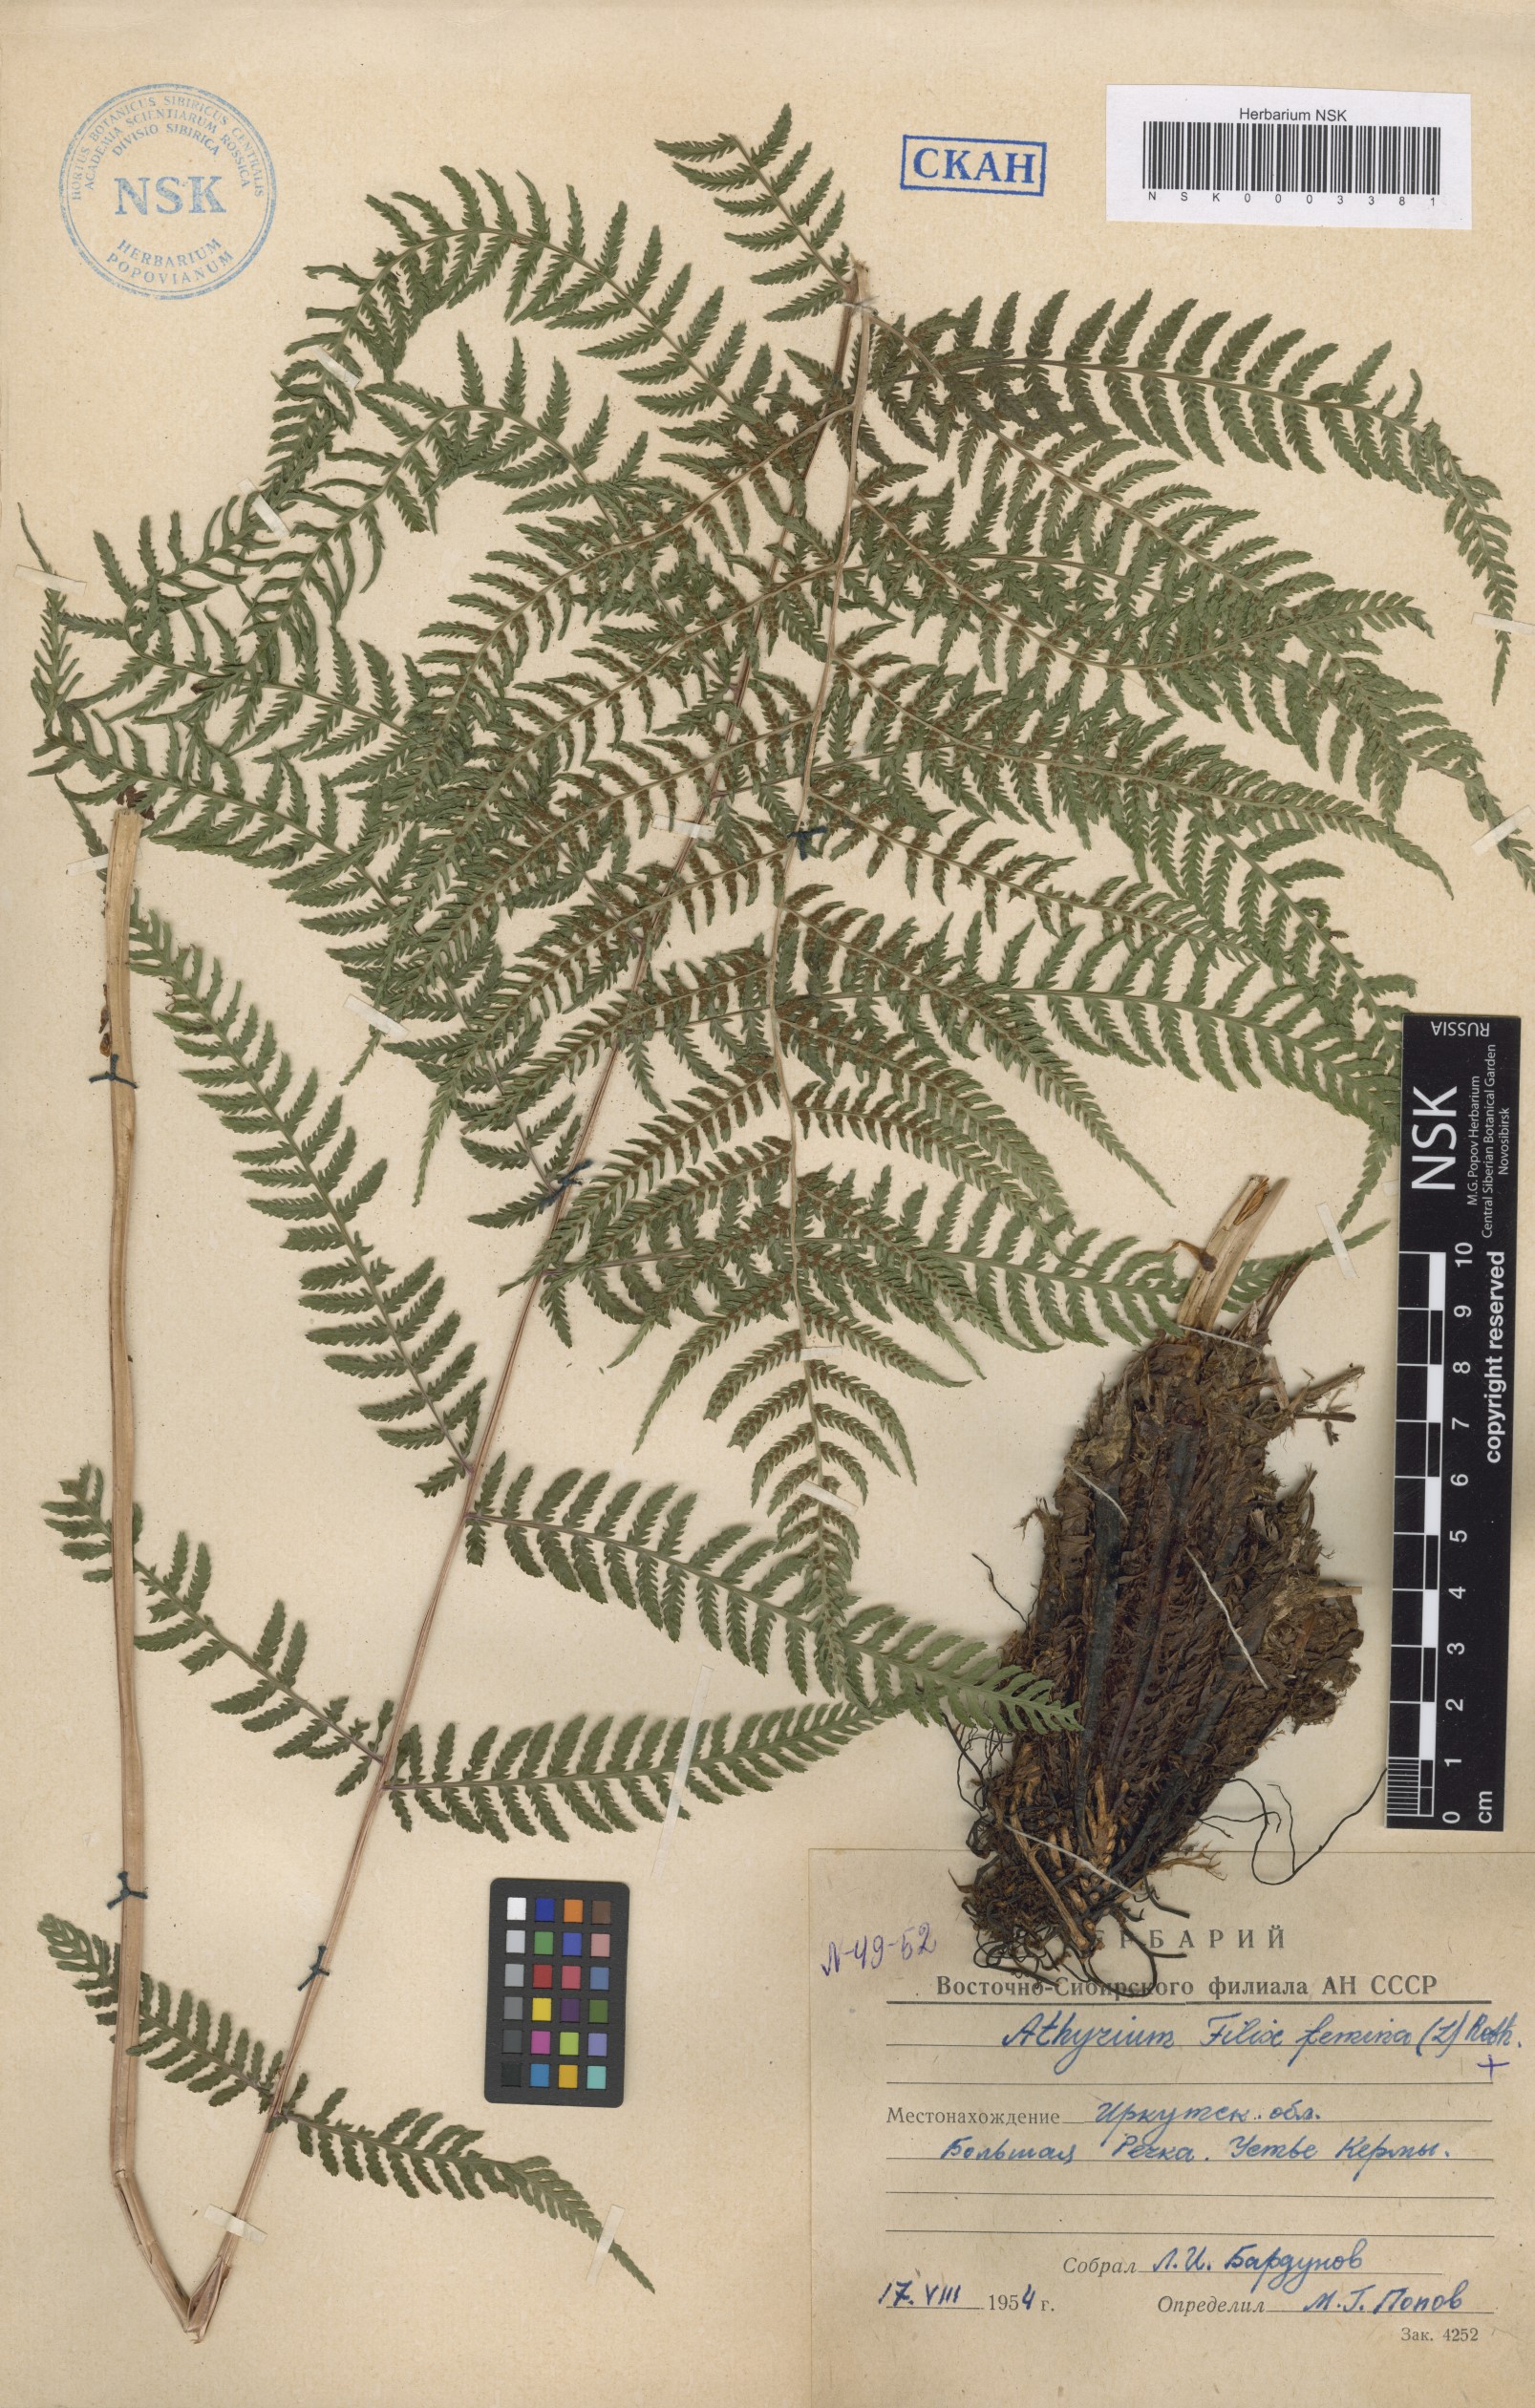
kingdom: Plantae
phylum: Tracheophyta
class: Polypodiopsida
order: Polypodiales
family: Athyriaceae
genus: Athyrium
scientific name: Athyrium filix-femina
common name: Lady fern
